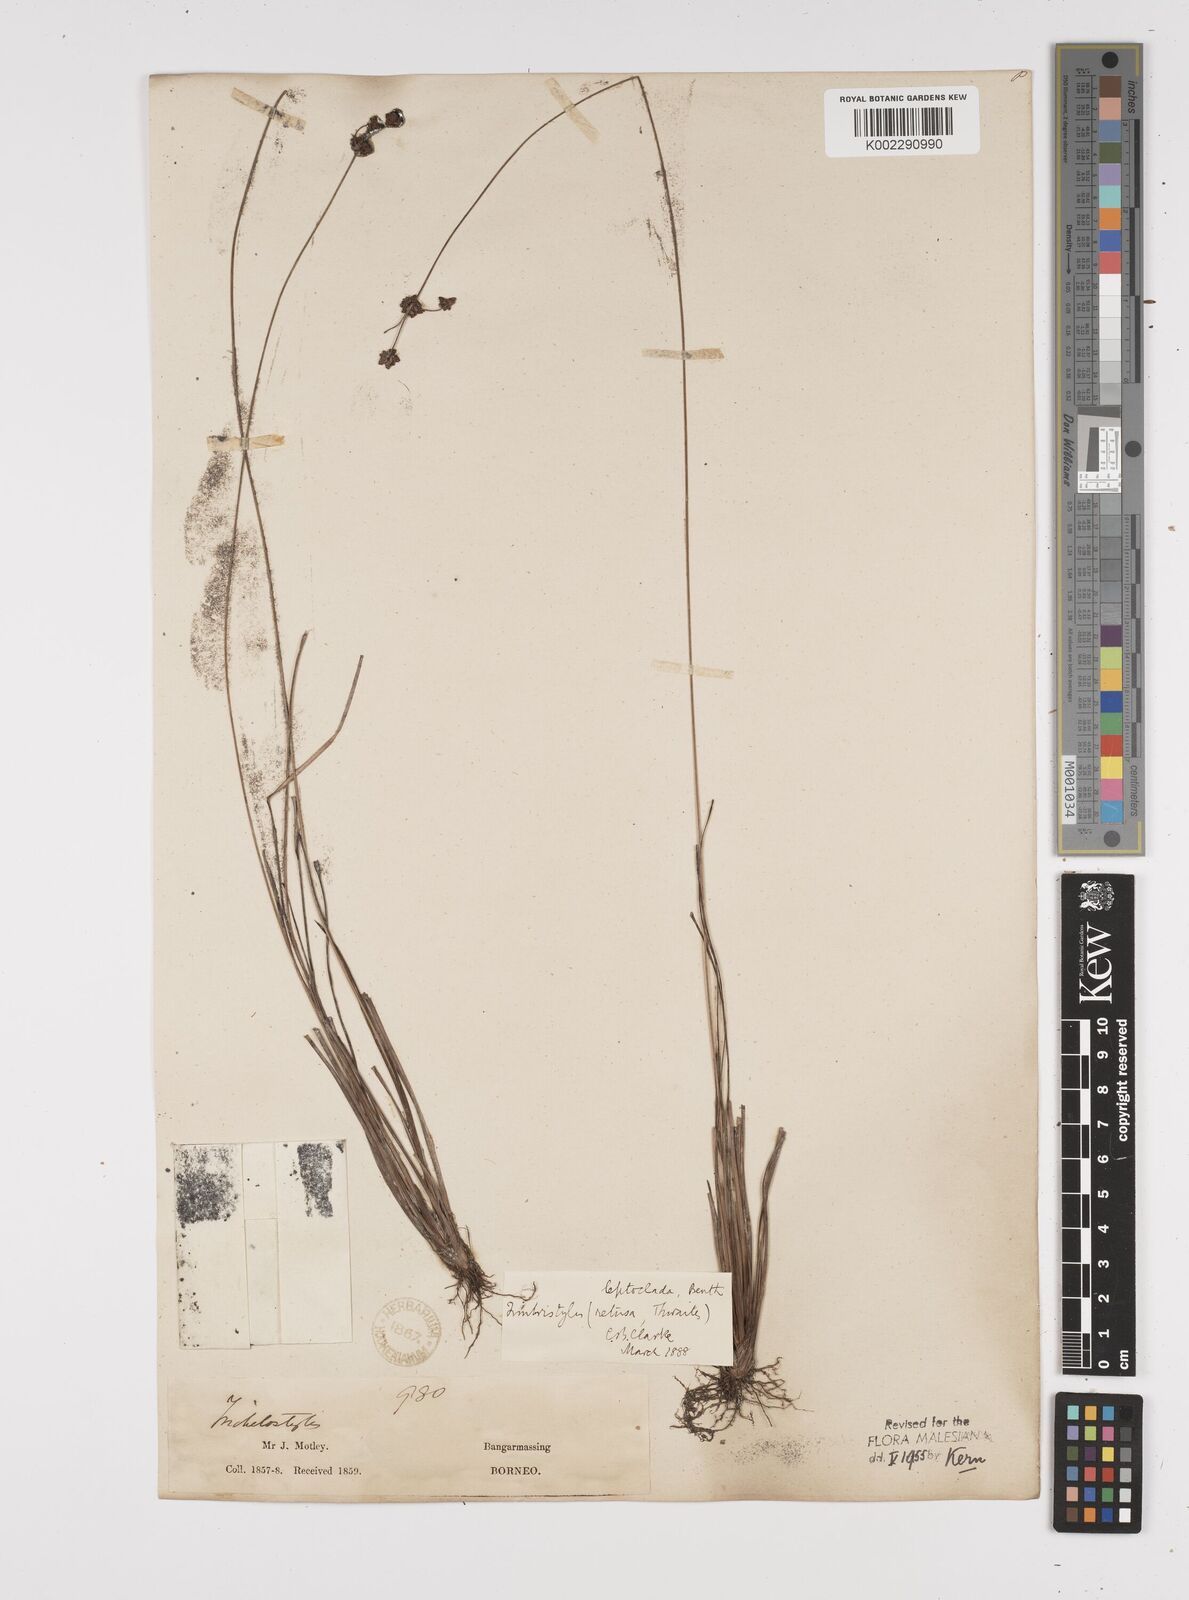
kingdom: Plantae
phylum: Tracheophyta
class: Liliopsida
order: Poales
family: Cyperaceae
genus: Fimbristylis
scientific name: Fimbristylis leptoclada
